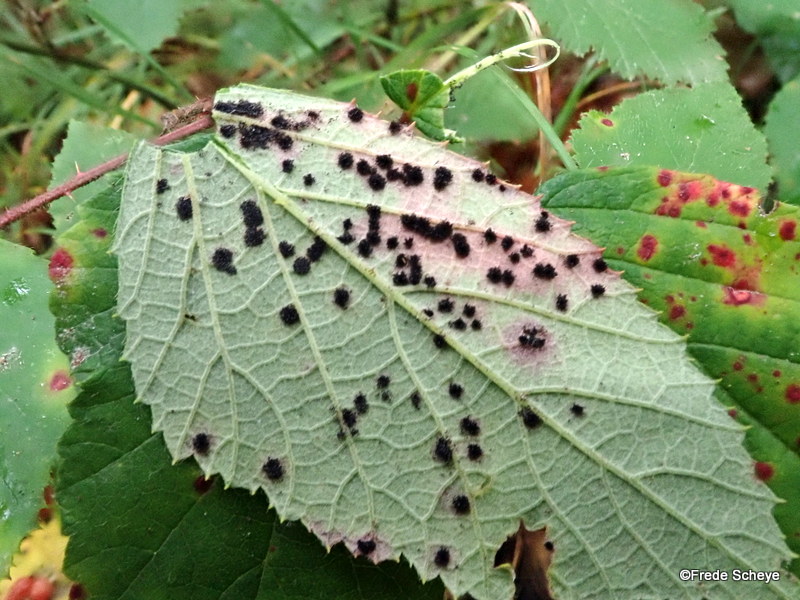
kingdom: Fungi
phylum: Basidiomycota
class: Pucciniomycetes
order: Pucciniales
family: Phragmidiaceae
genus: Phragmidium
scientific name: Phragmidium violaceum
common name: violet flercellerust
